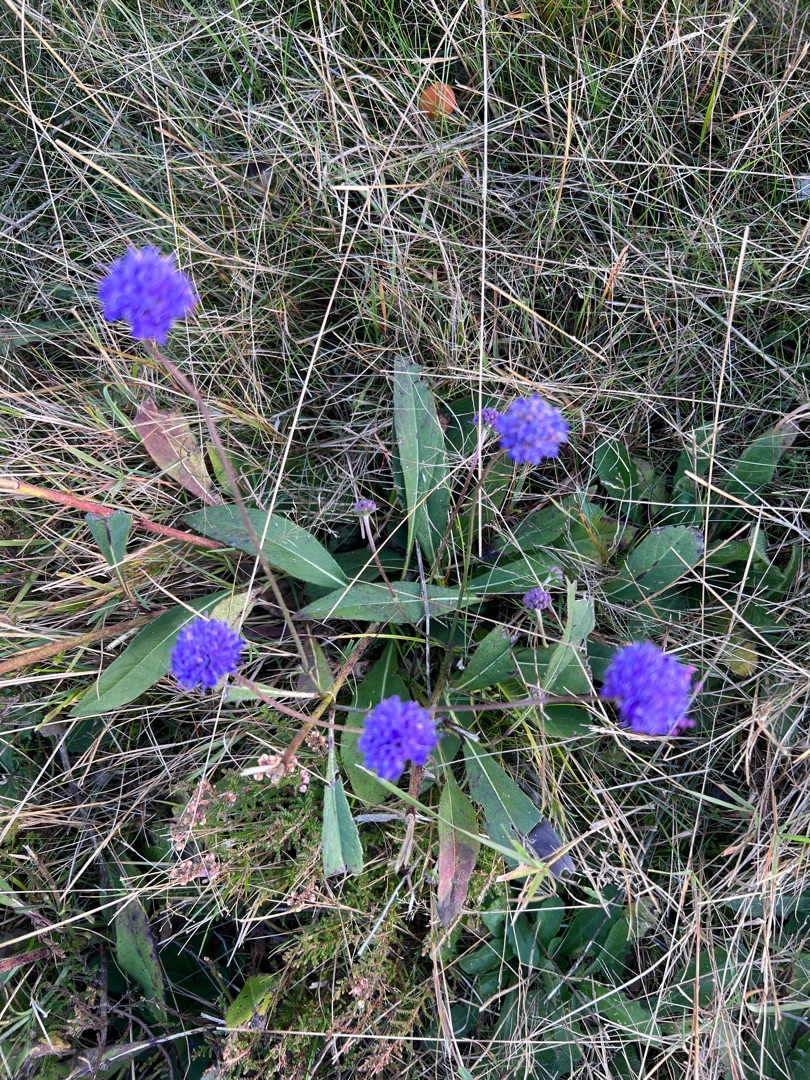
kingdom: Plantae
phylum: Tracheophyta
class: Magnoliopsida
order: Dipsacales
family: Caprifoliaceae
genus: Succisa
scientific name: Succisa pratensis
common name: Djævelsbid
